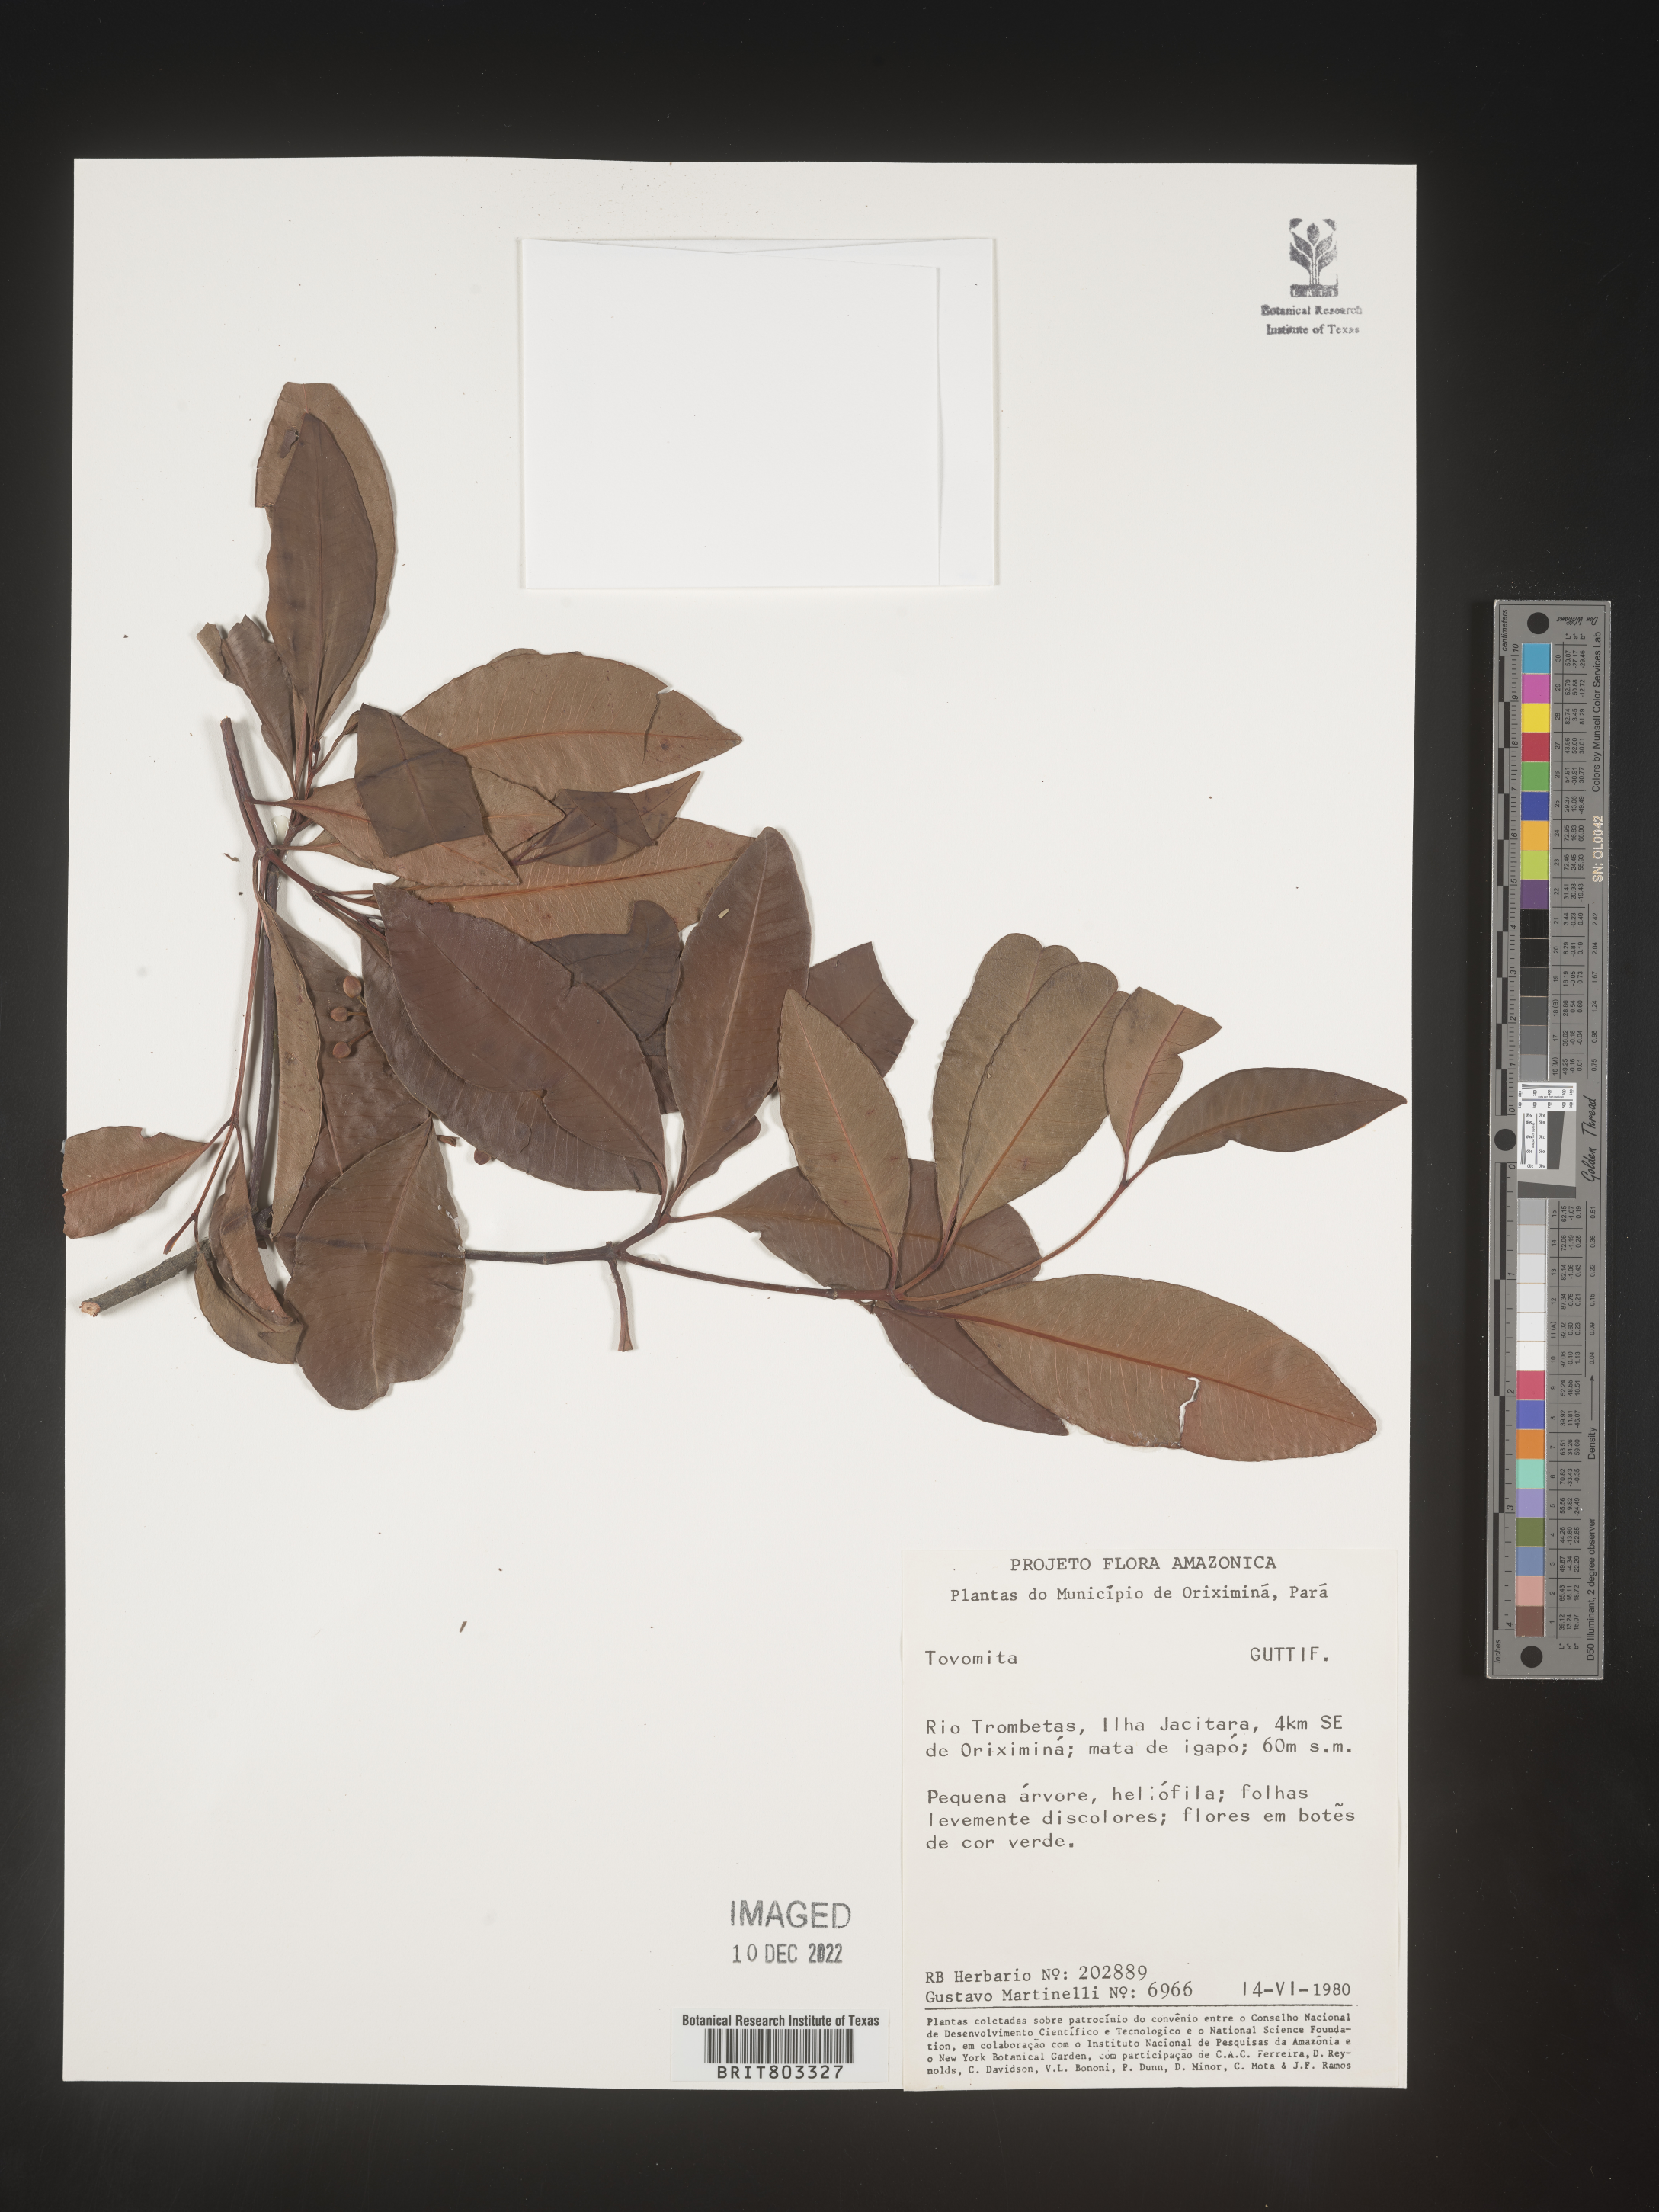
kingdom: Plantae
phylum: Tracheophyta
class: Magnoliopsida
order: Malpighiales
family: Clusiaceae
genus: Tovomita
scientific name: Tovomita
